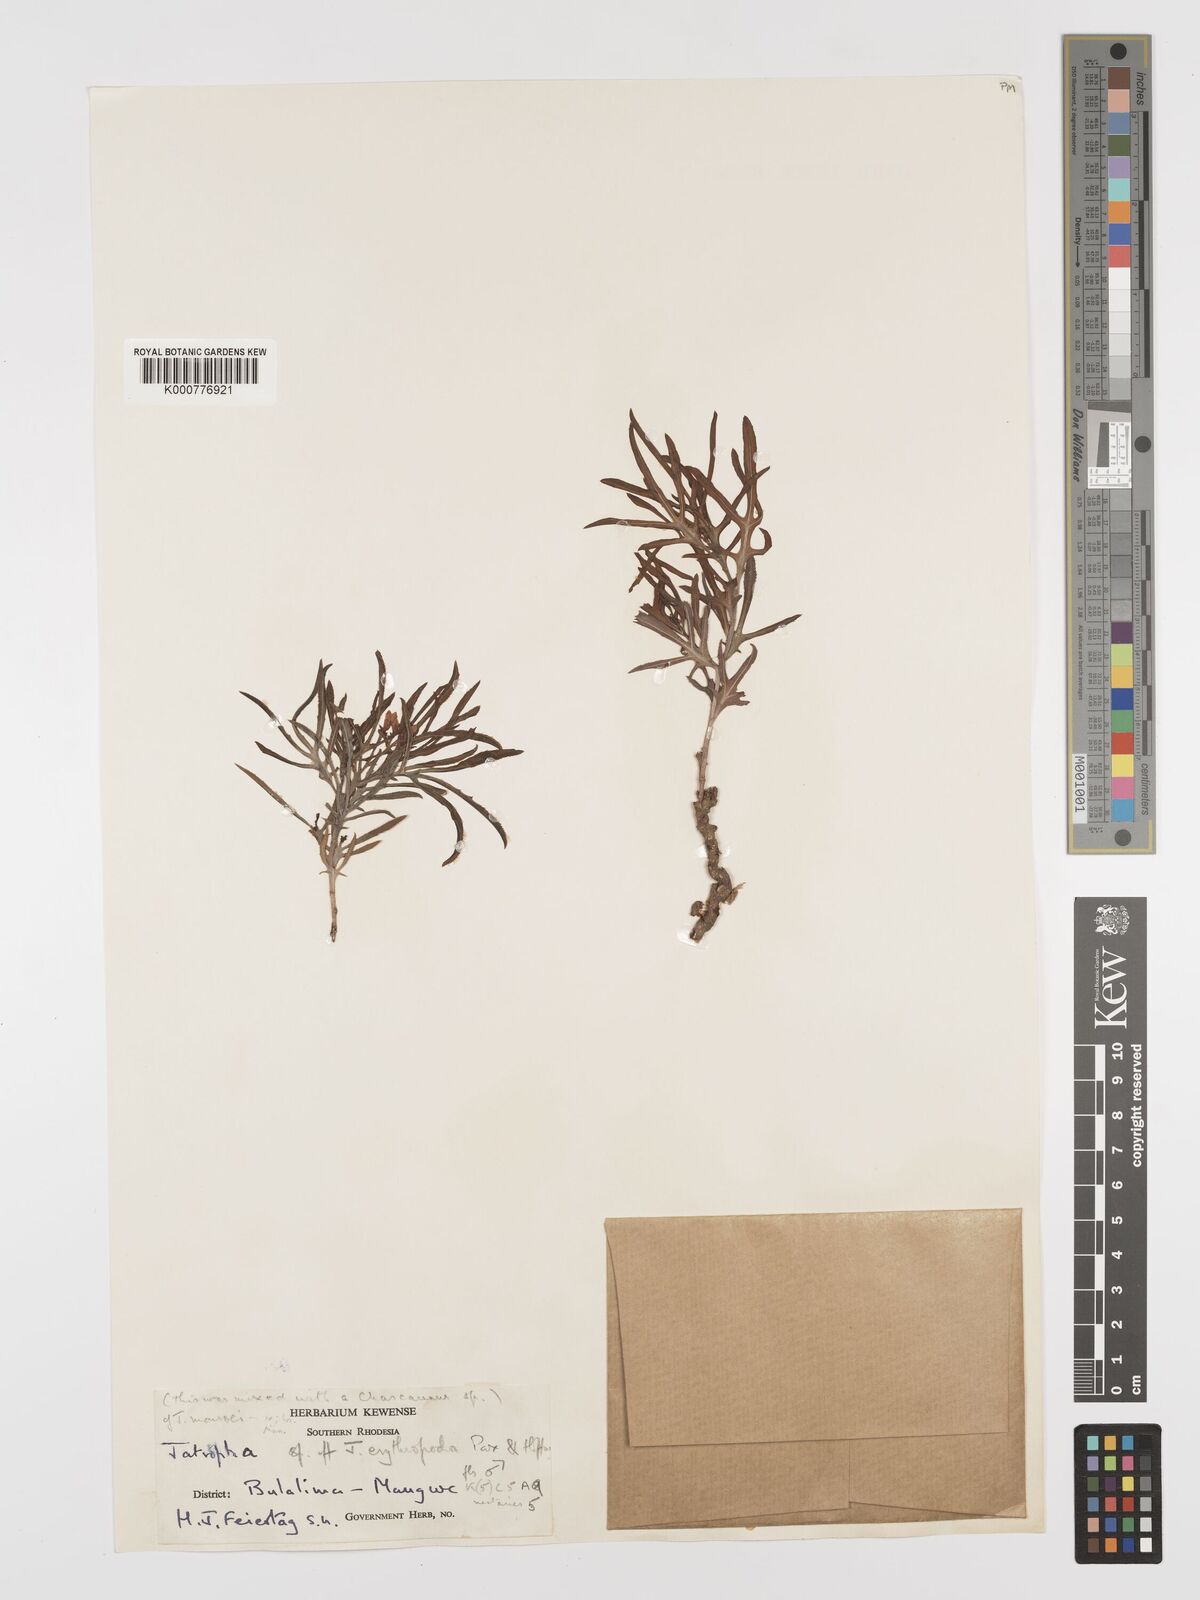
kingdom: Plantae
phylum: Tracheophyta
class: Magnoliopsida
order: Malpighiales
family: Euphorbiaceae
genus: Jatropha
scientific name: Jatropha erythropoda
